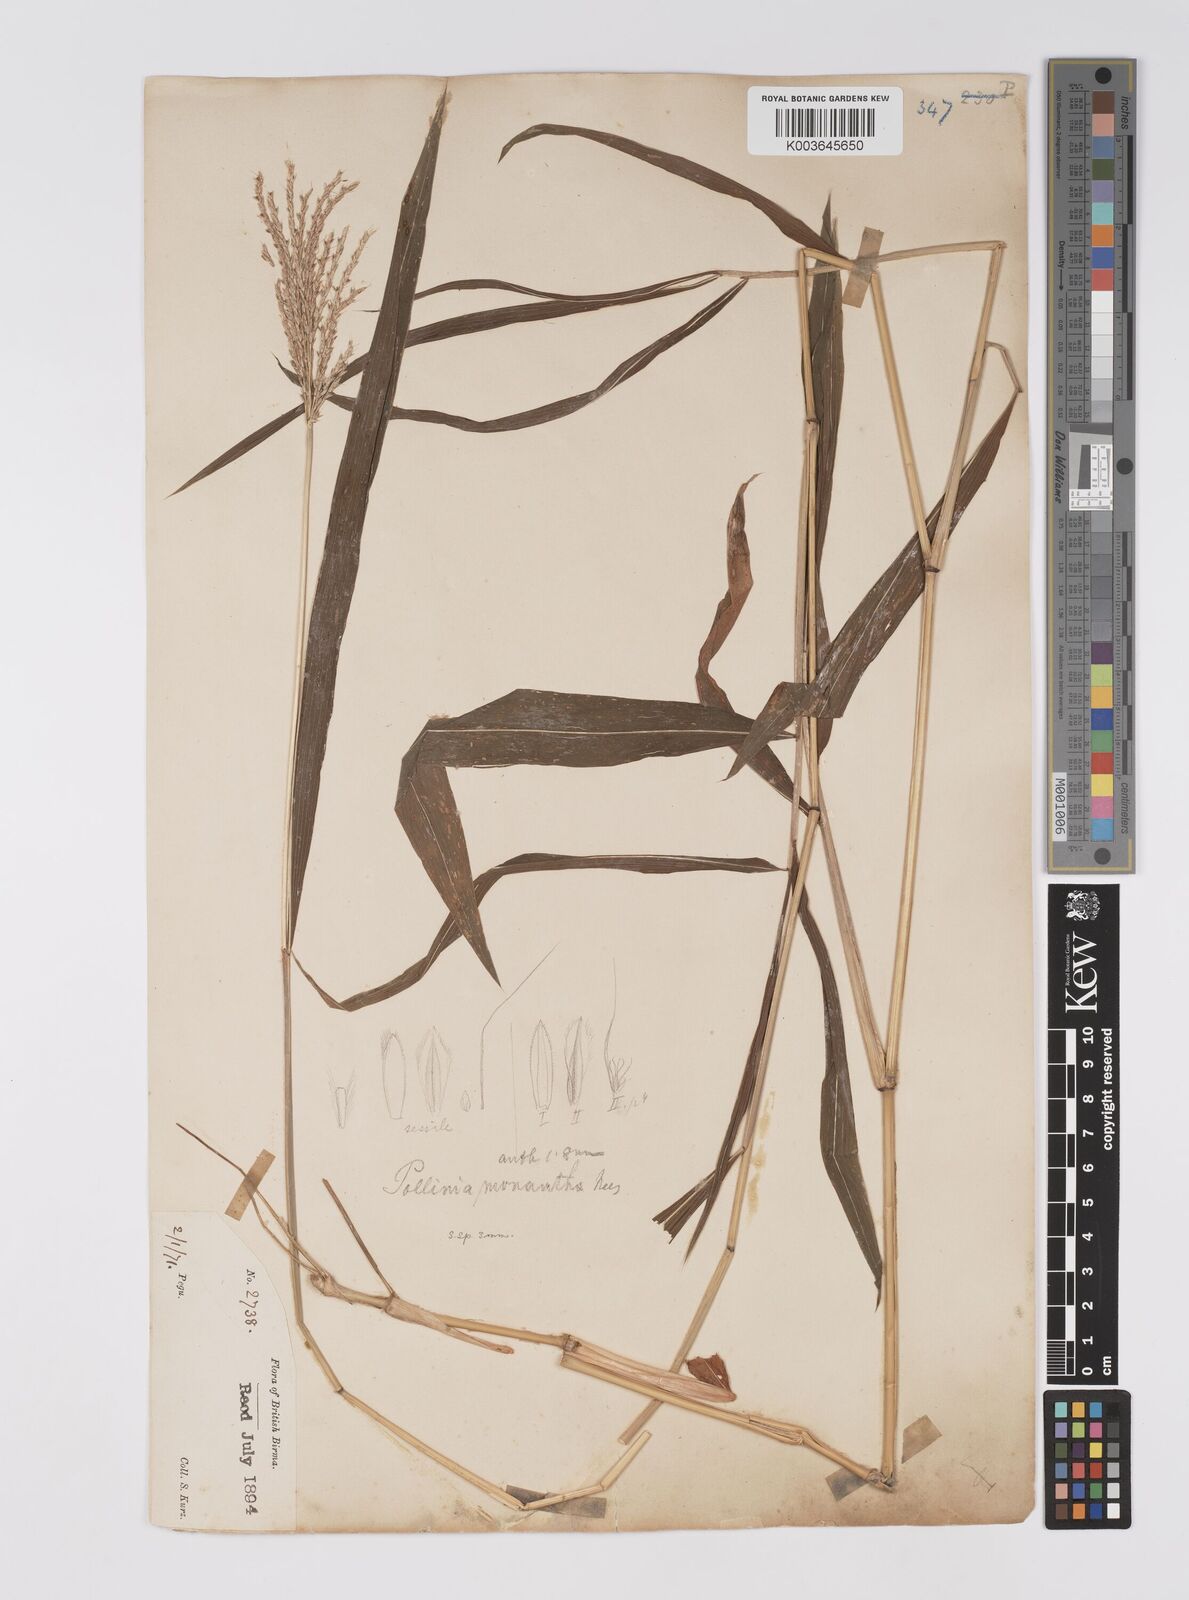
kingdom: Plantae
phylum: Tracheophyta
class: Liliopsida
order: Poales
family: Poaceae
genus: Microstegium
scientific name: Microstegium fasciculatum
